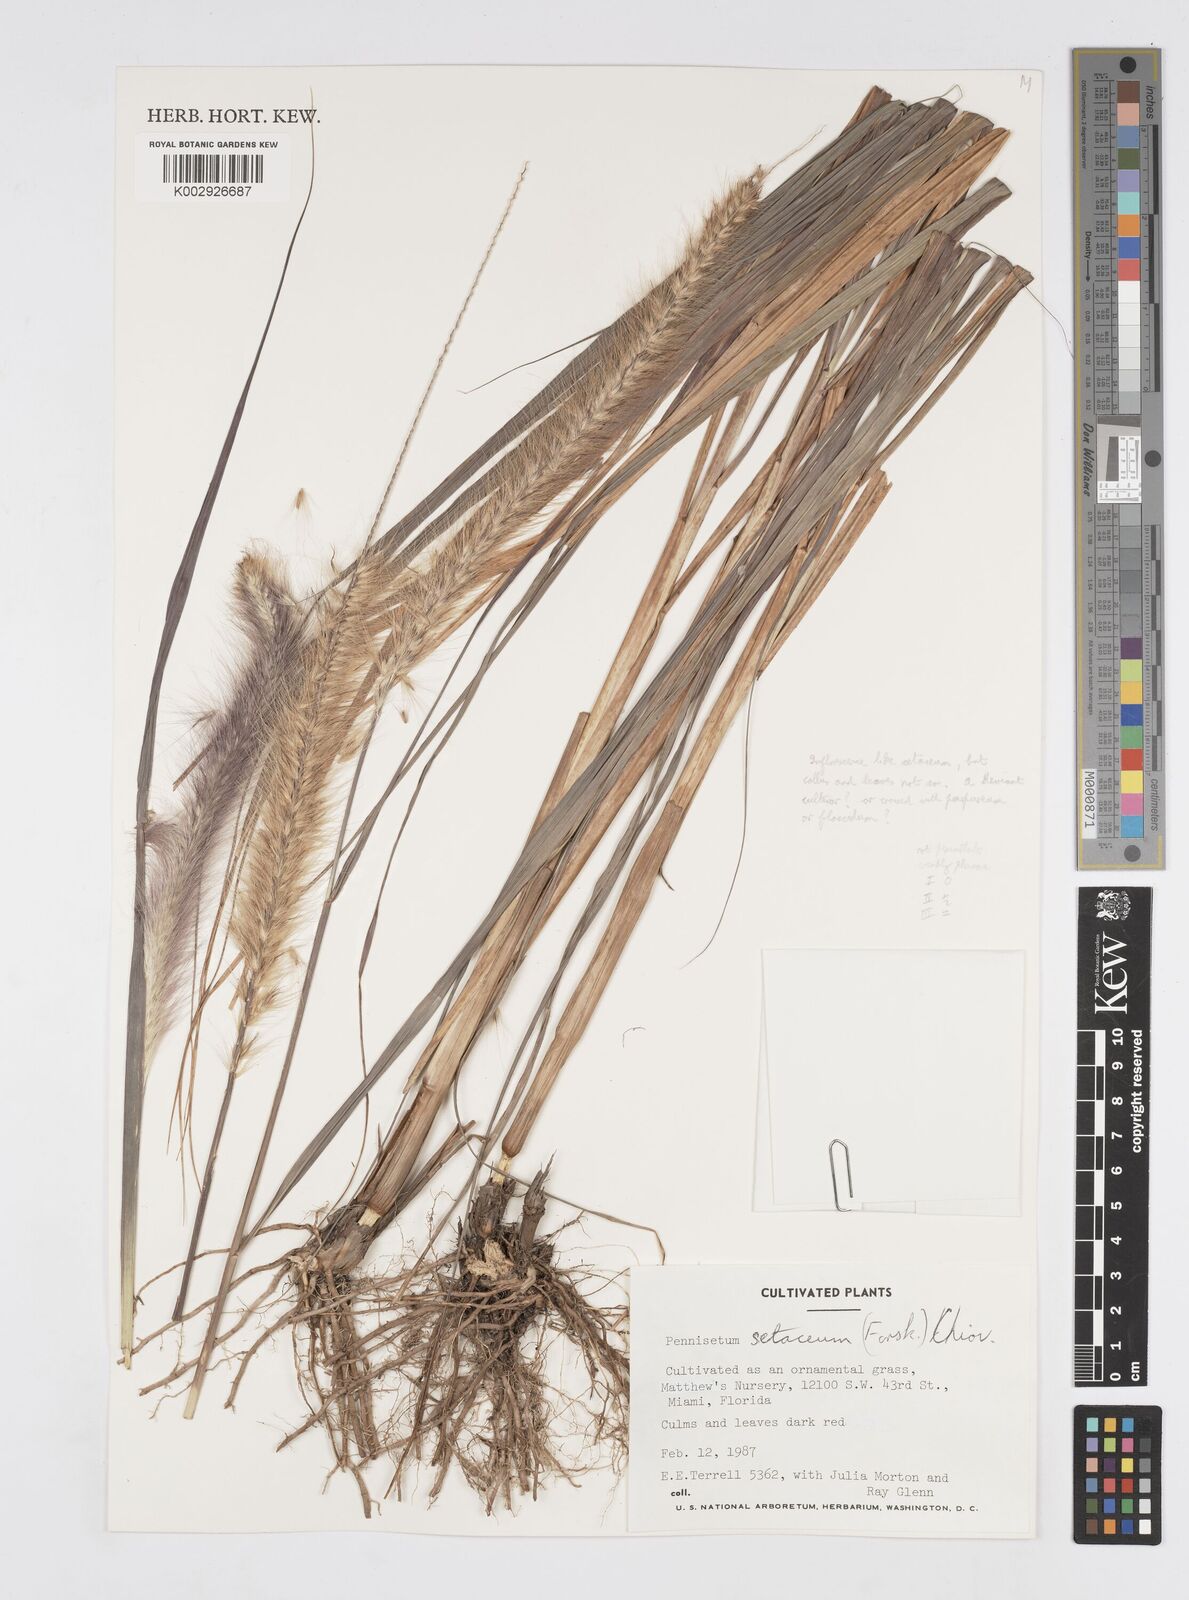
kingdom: Plantae
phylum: Tracheophyta
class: Liliopsida
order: Poales
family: Poaceae
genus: Cenchrus
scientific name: Cenchrus setaceus
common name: Crimson fountaingrass
